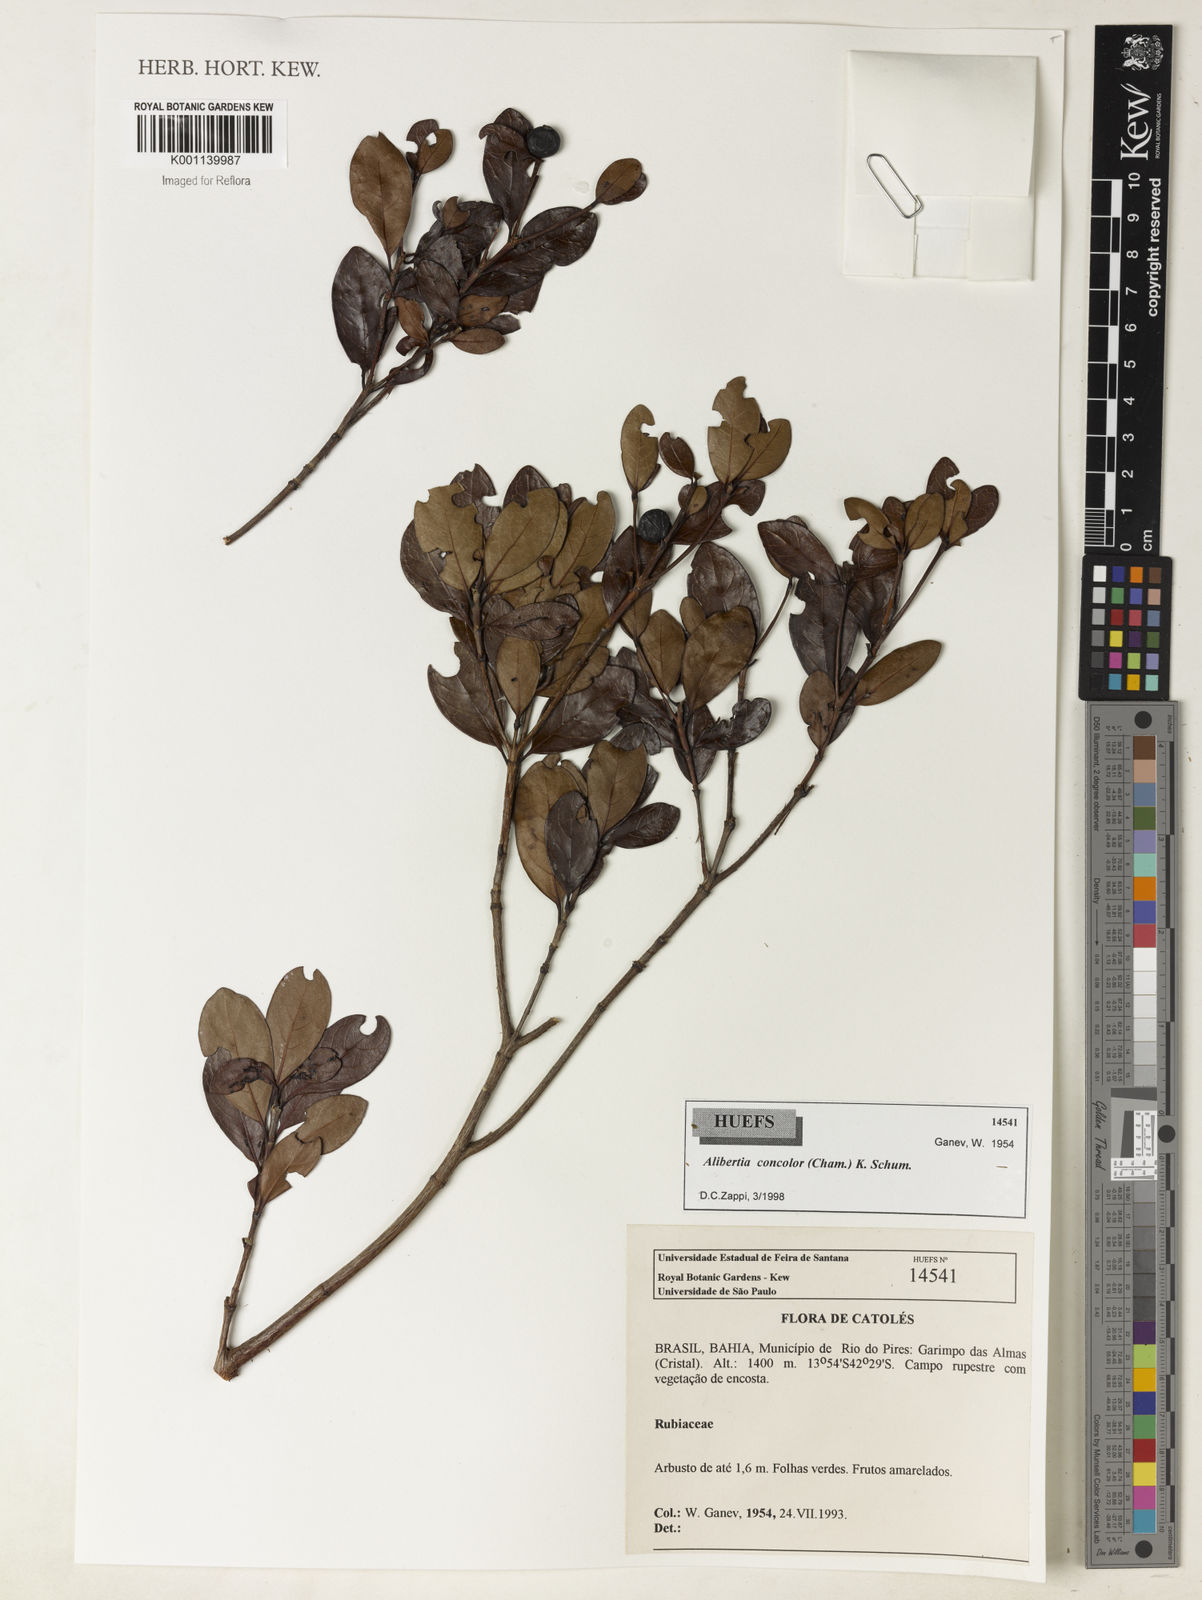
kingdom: Plantae
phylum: Tracheophyta
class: Magnoliopsida
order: Gentianales
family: Rubiaceae
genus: Cordiera
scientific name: Cordiera concolor
